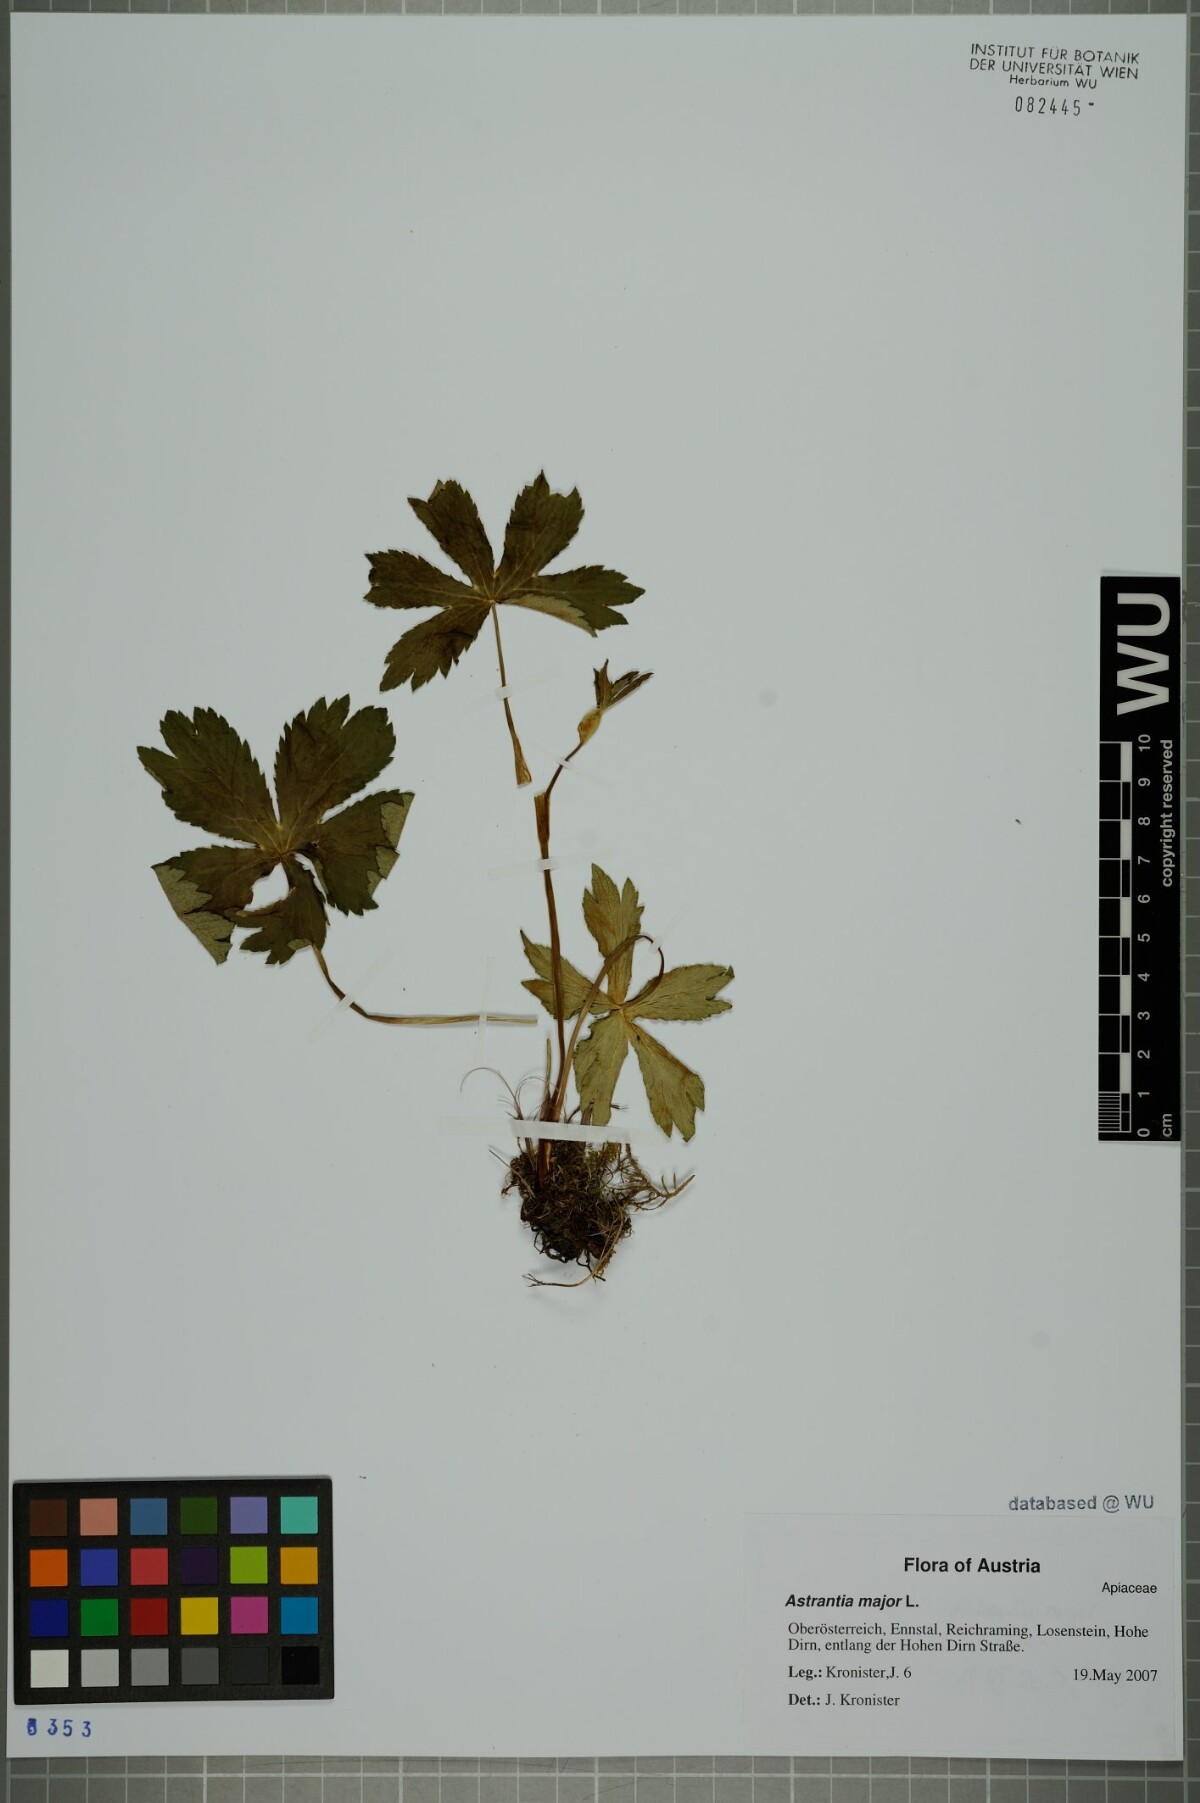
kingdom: Plantae
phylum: Tracheophyta
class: Magnoliopsida
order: Apiales
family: Apiaceae
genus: Astrantia
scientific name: Astrantia major
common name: Greater masterwort
